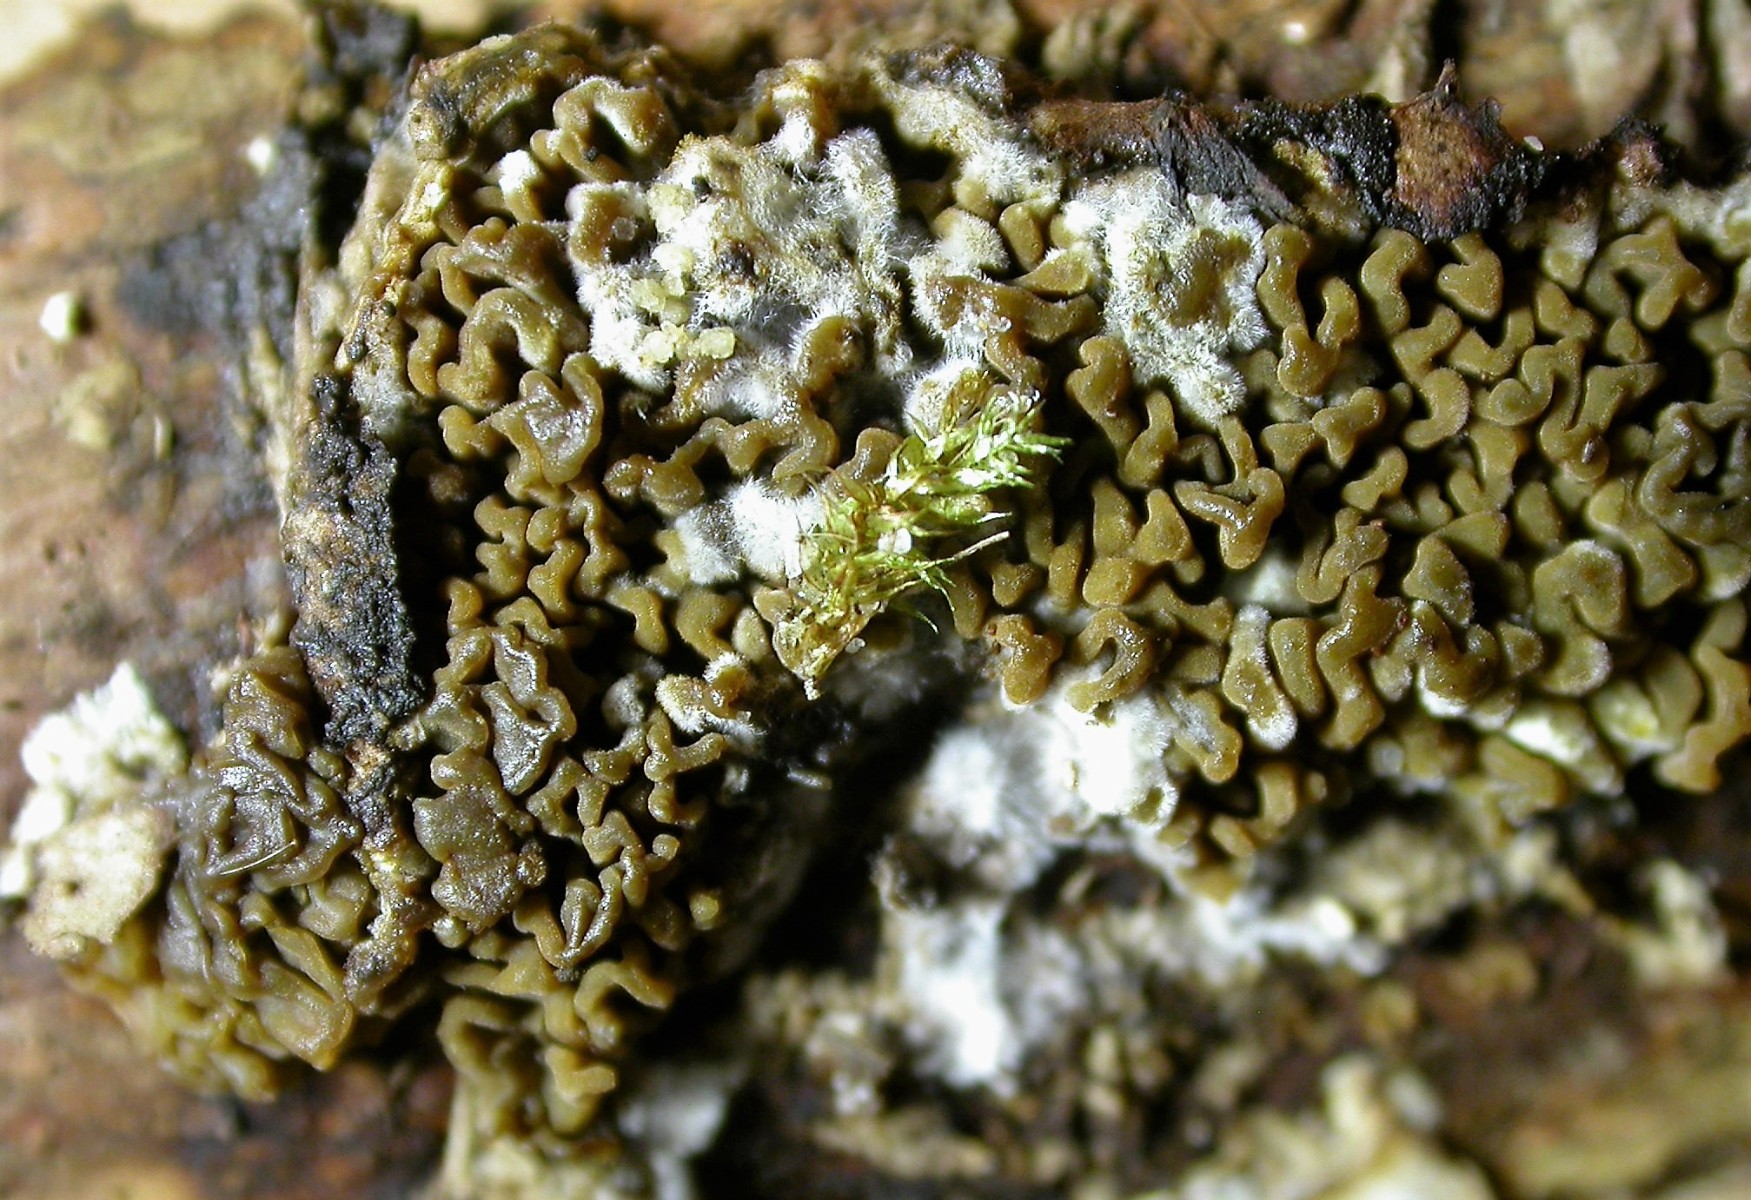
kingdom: Fungi
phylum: Basidiomycota
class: Agaricomycetes
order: Boletales
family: Serpulaceae
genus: Serpula
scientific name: Serpula himantioides
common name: tyndkødet hussvamp
